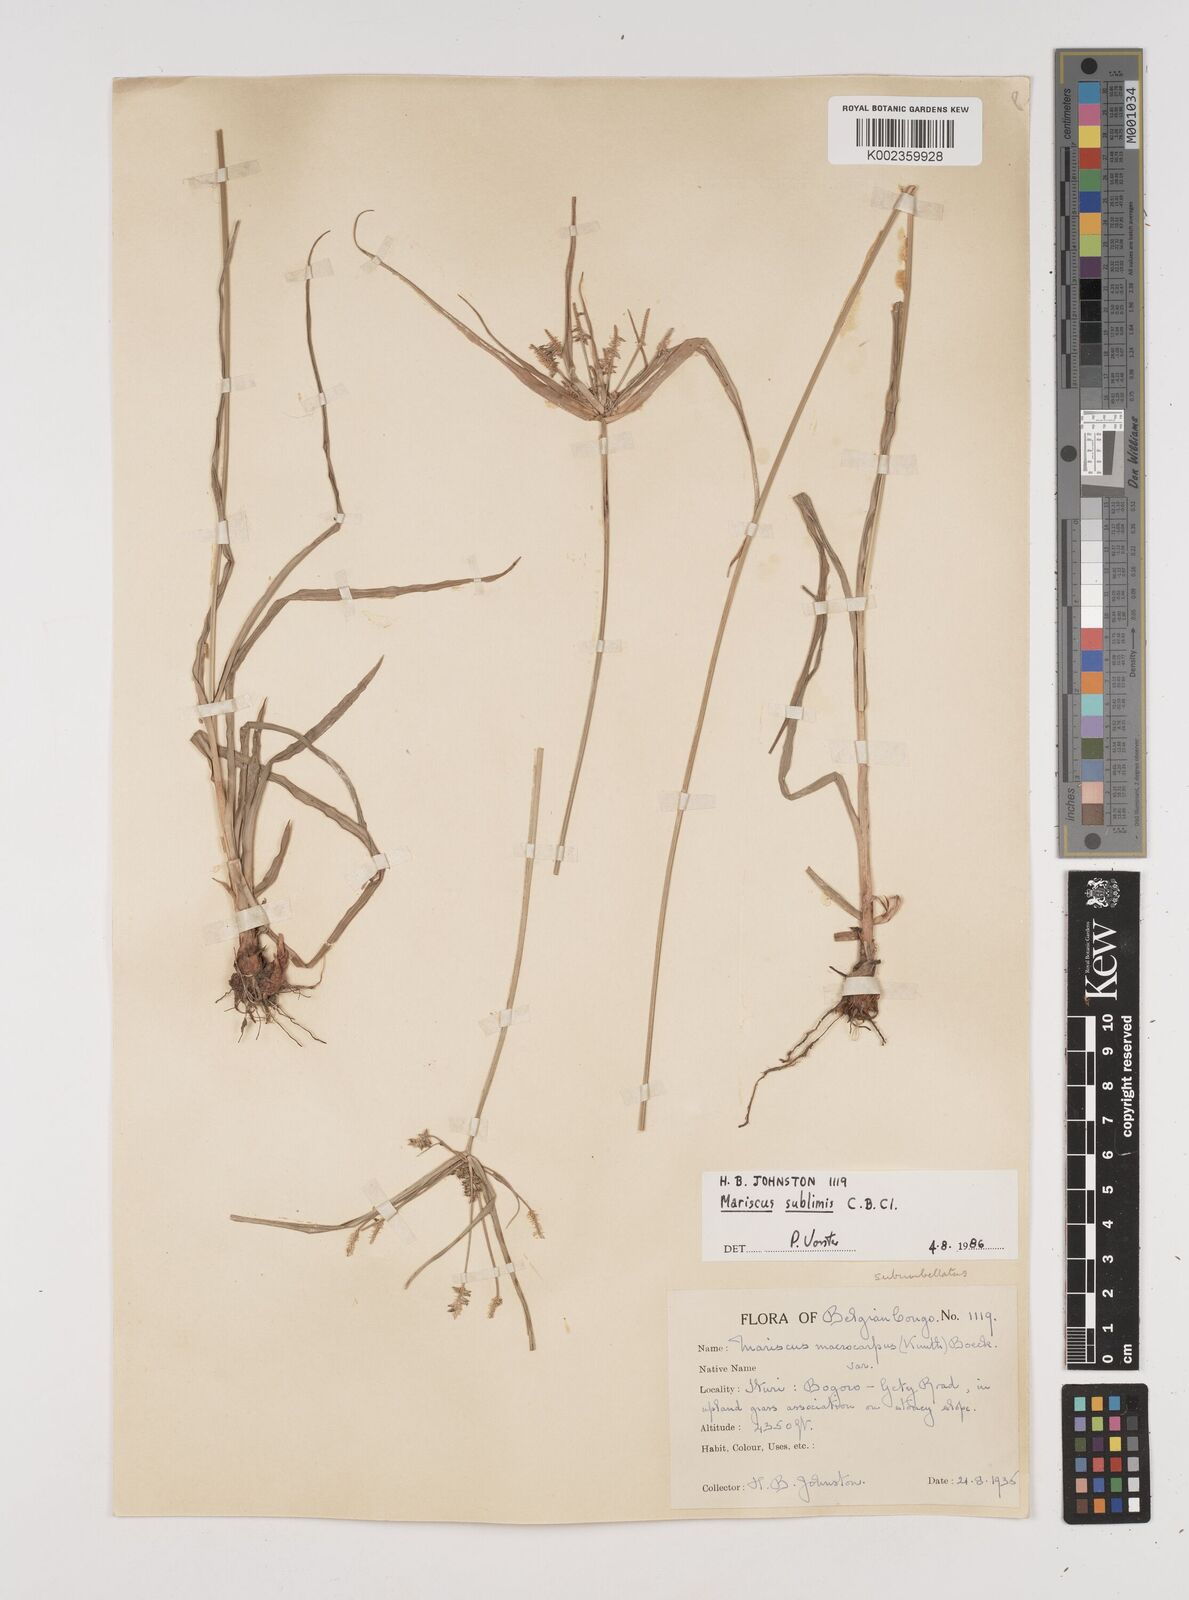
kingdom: Plantae
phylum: Tracheophyta
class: Liliopsida
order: Poales
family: Cyperaceae
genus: Cyperus
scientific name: Cyperus cyperoides
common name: Pacific island flat sedge
